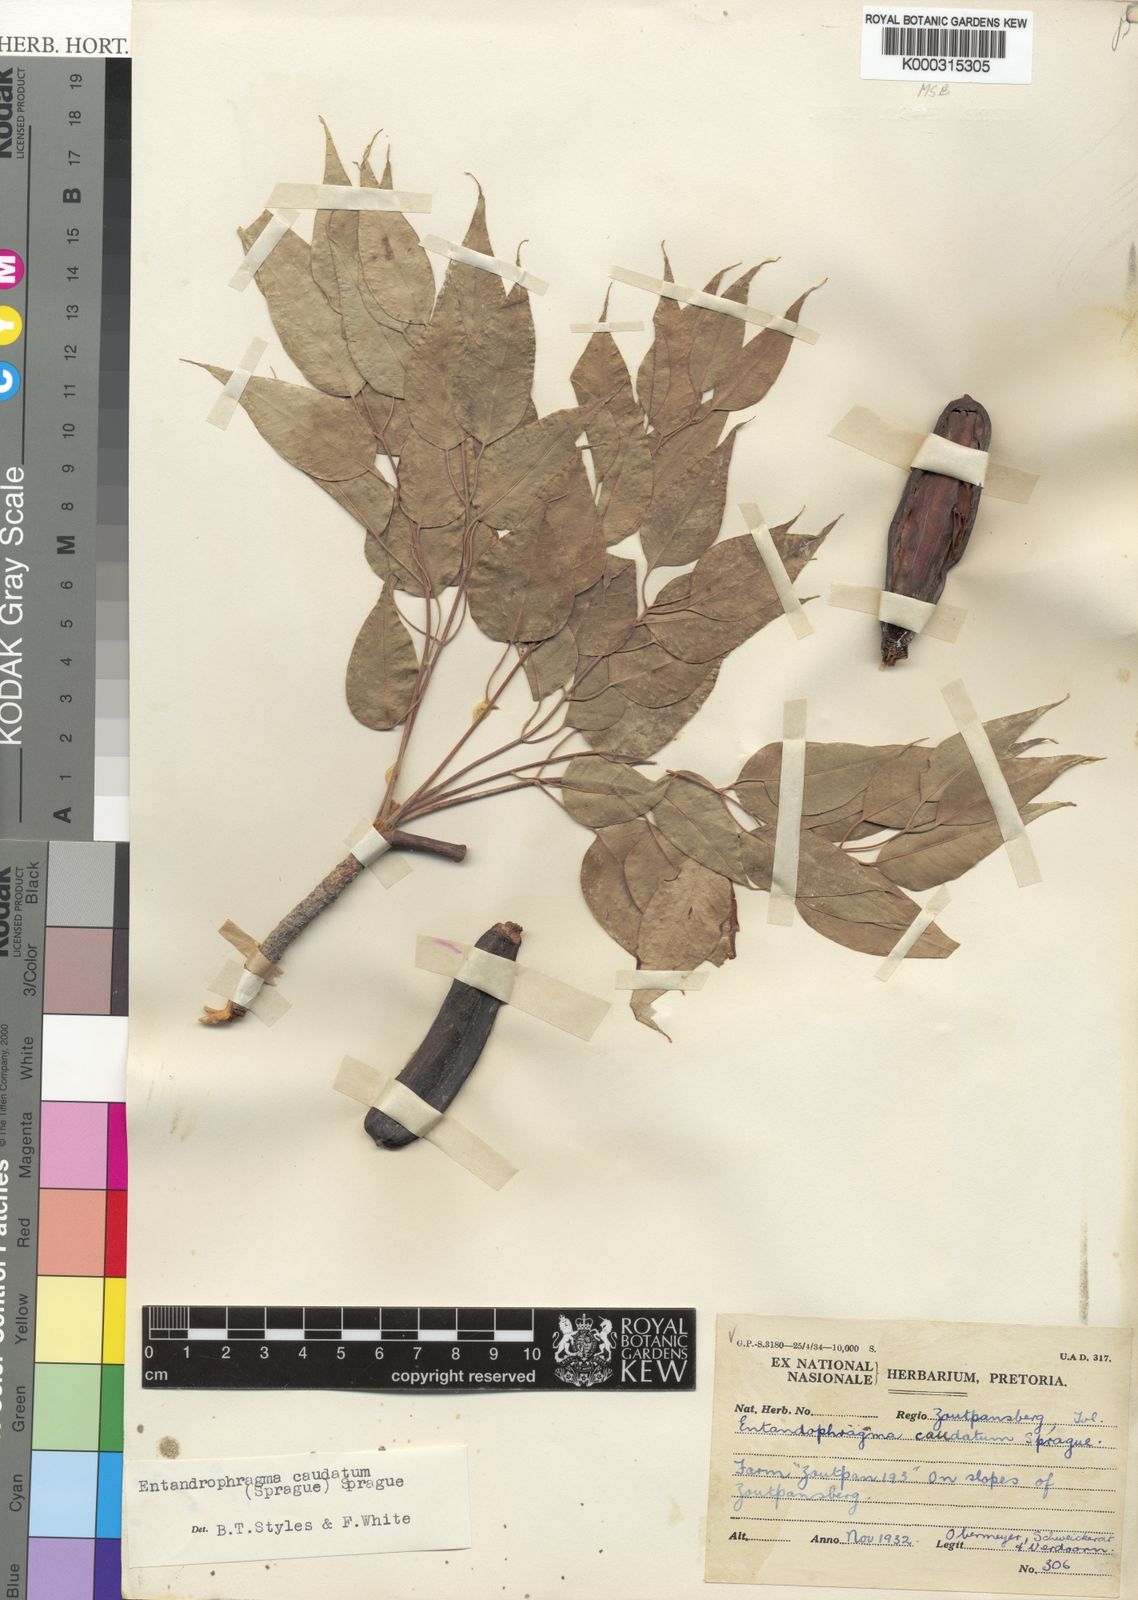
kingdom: Plantae
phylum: Tracheophyta
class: Magnoliopsida
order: Sapindales
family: Meliaceae
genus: Entandrophragma
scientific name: Entandrophragma caudatum
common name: Mountain-mahogany
